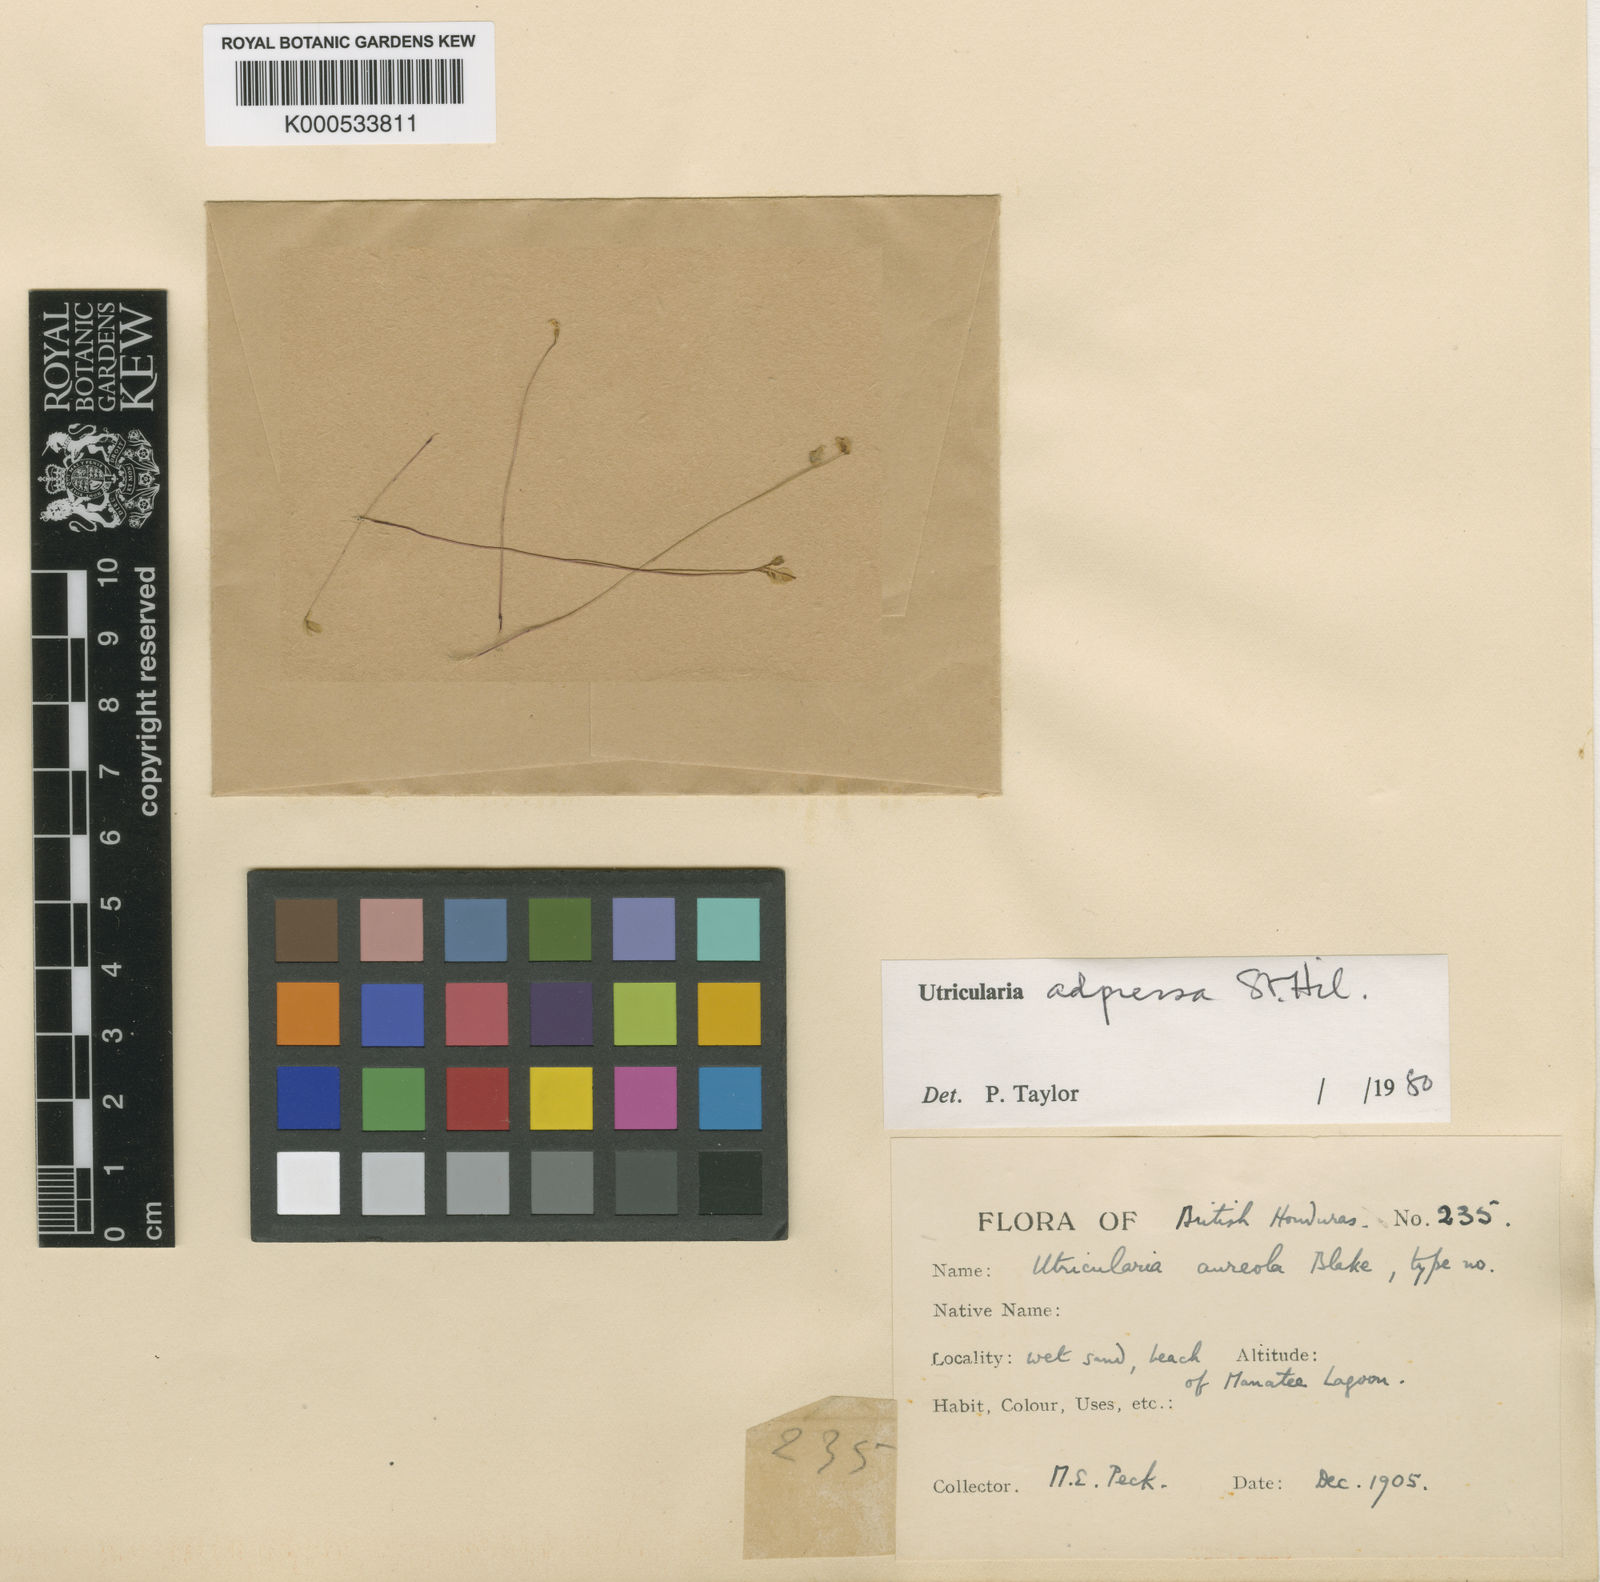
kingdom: Plantae
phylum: Tracheophyta
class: Magnoliopsida
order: Lamiales
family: Lentibulariaceae
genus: Utricularia
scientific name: Utricularia adpressa
